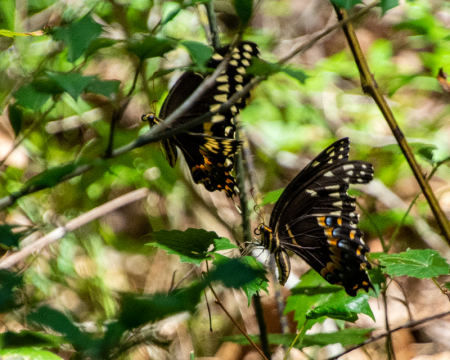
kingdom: Animalia
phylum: Arthropoda
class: Insecta
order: Lepidoptera
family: Papilionidae
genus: Pterourus
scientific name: Pterourus palamedes
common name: Palamedes Swallowtail
